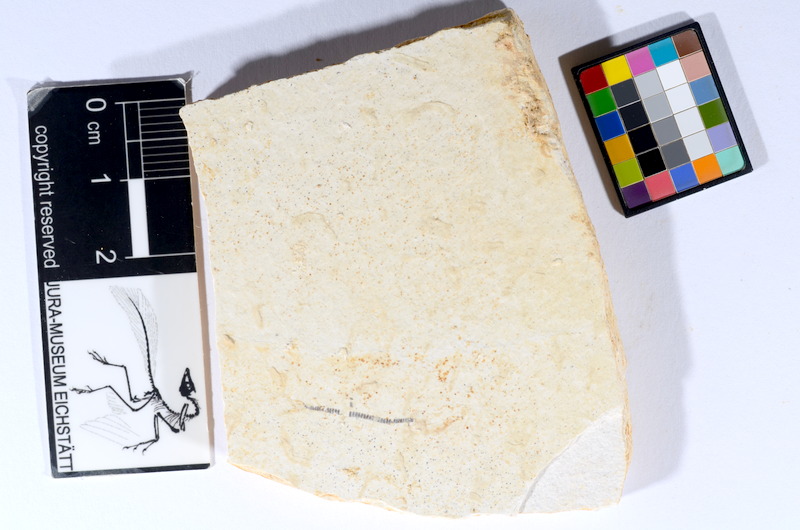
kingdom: Animalia
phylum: Chordata
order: Salmoniformes
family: Orthogonikleithridae
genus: Orthogonikleithrus
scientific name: Orthogonikleithrus hoelli
